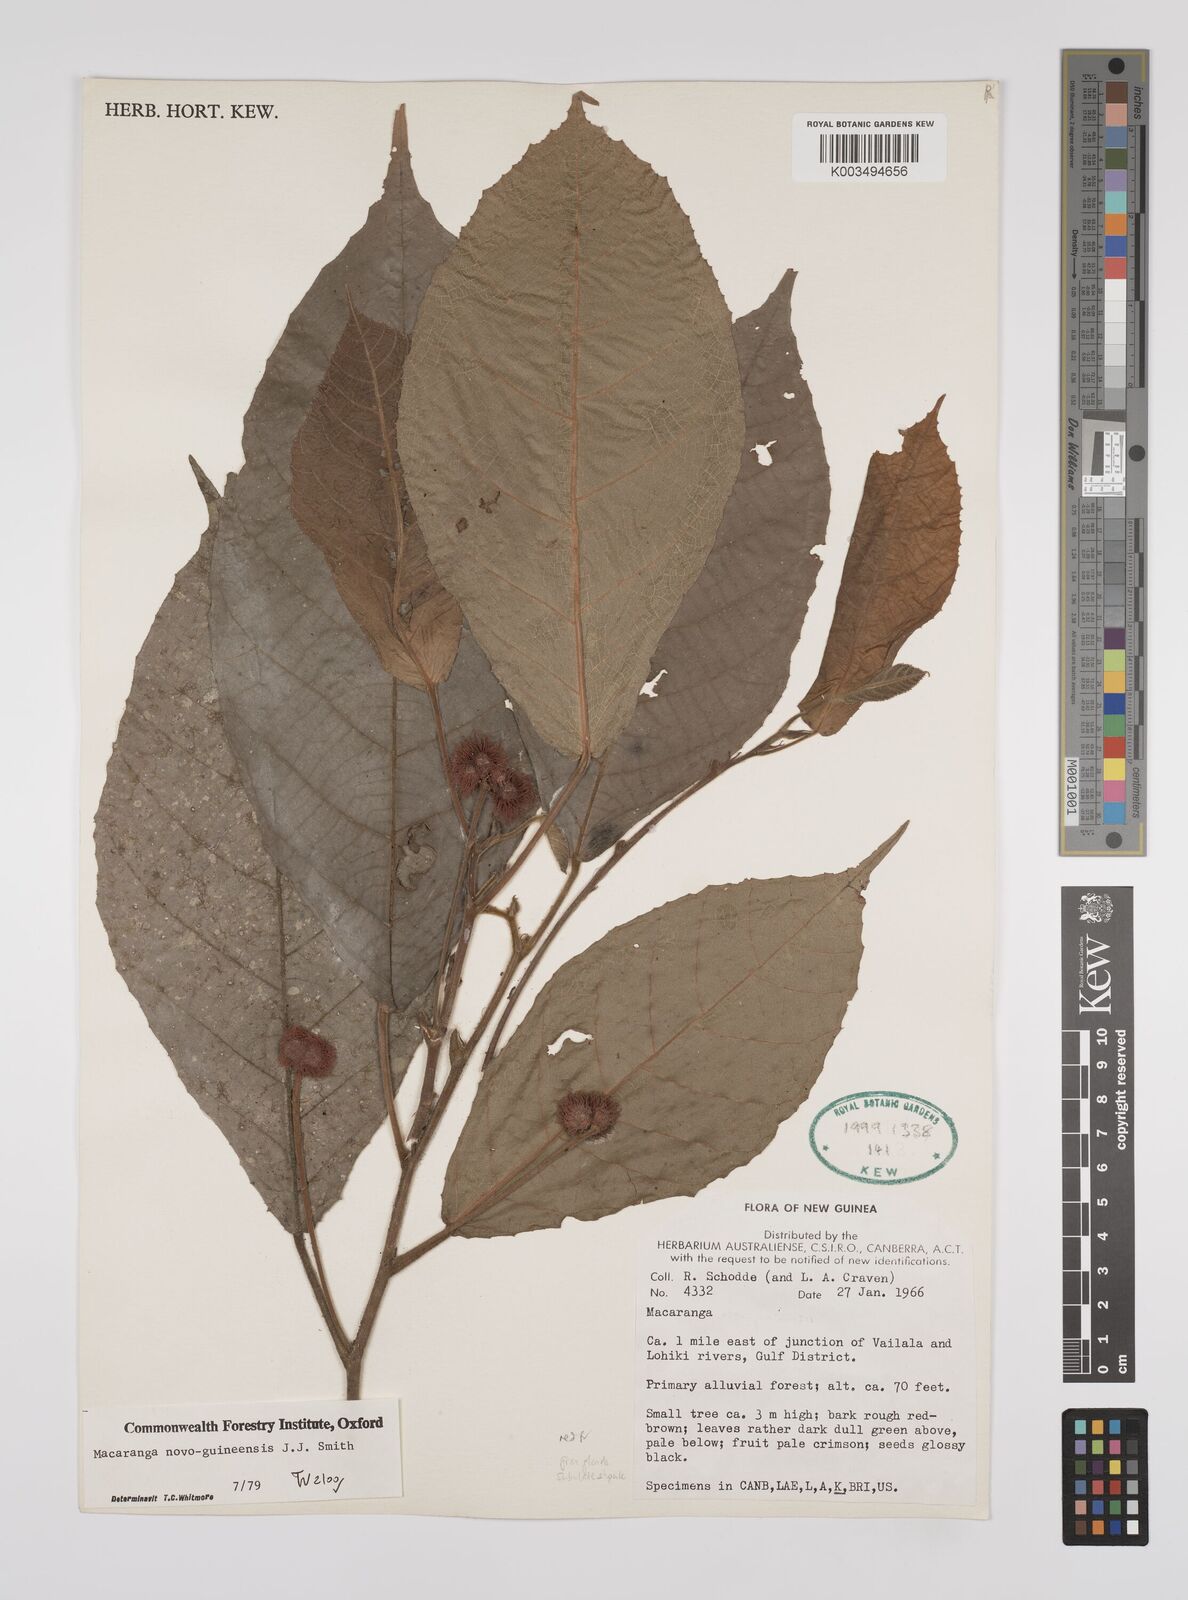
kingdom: Plantae
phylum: Tracheophyta
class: Magnoliopsida
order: Malpighiales
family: Euphorbiaceae
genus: Macaranga
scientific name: Macaranga novoguineensis
